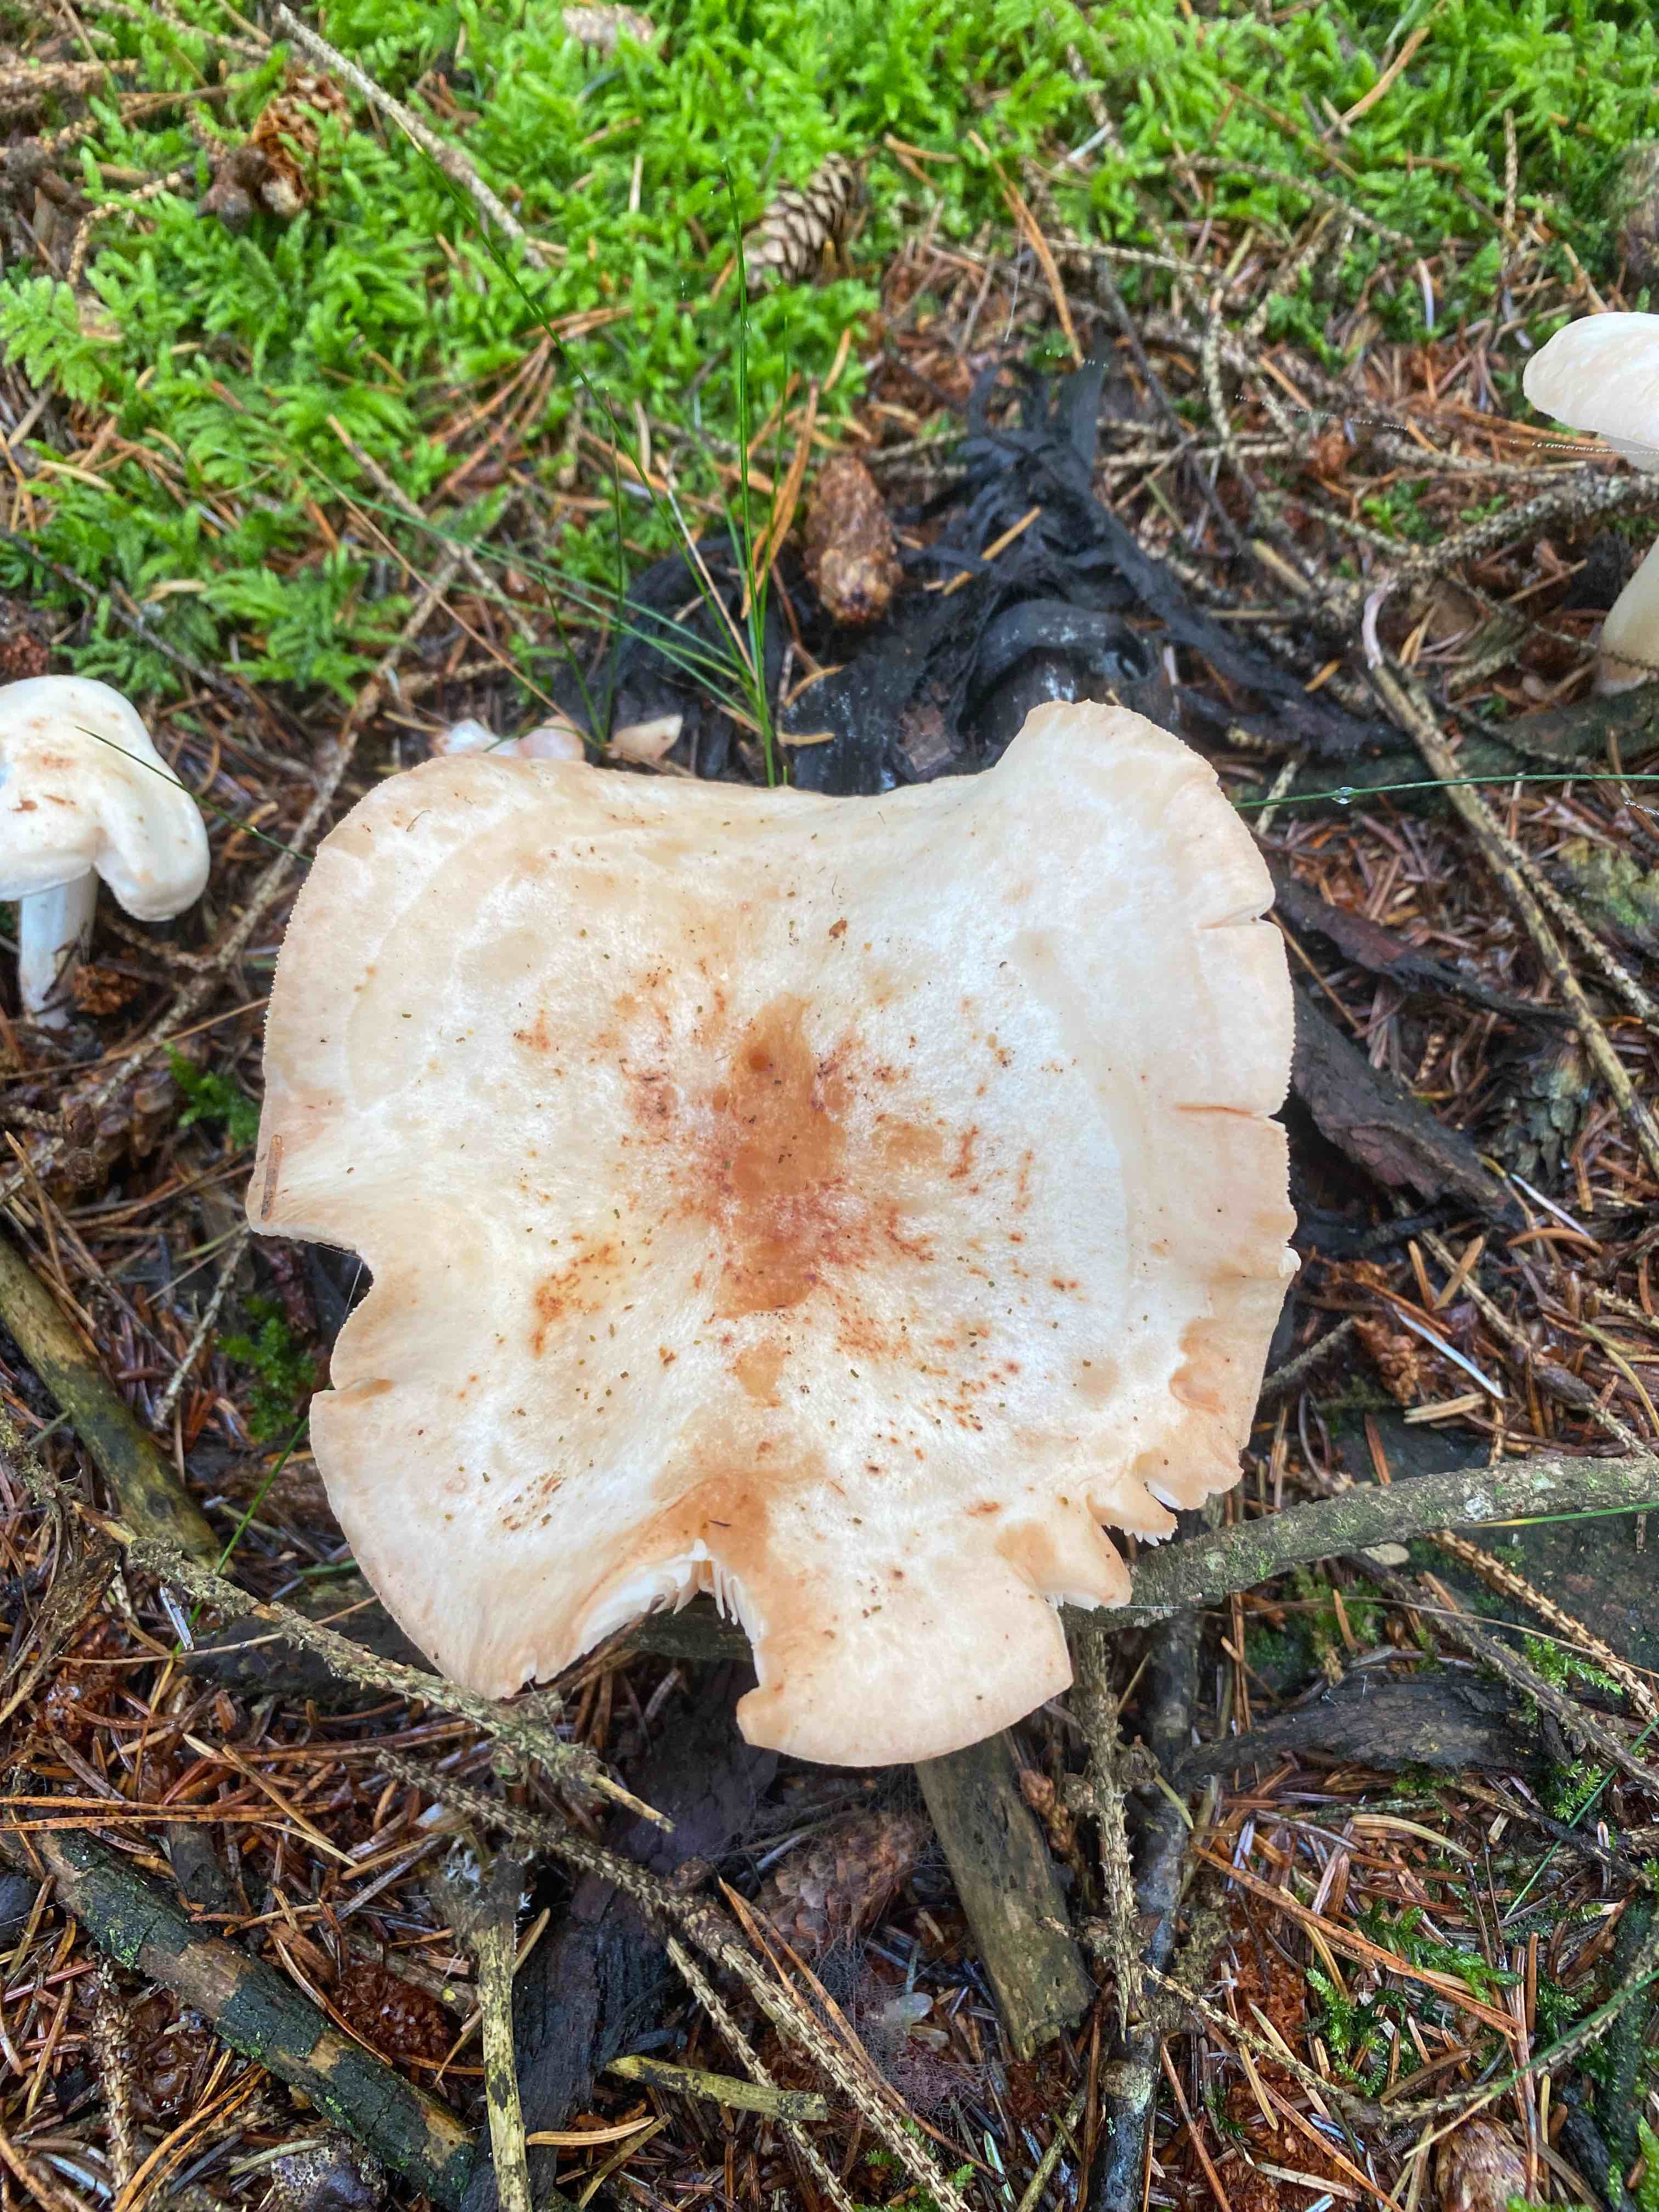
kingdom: Fungi
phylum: Basidiomycota
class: Agaricomycetes
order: Agaricales
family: Omphalotaceae
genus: Rhodocollybia
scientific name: Rhodocollybia maculata
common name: plettet fladhat
